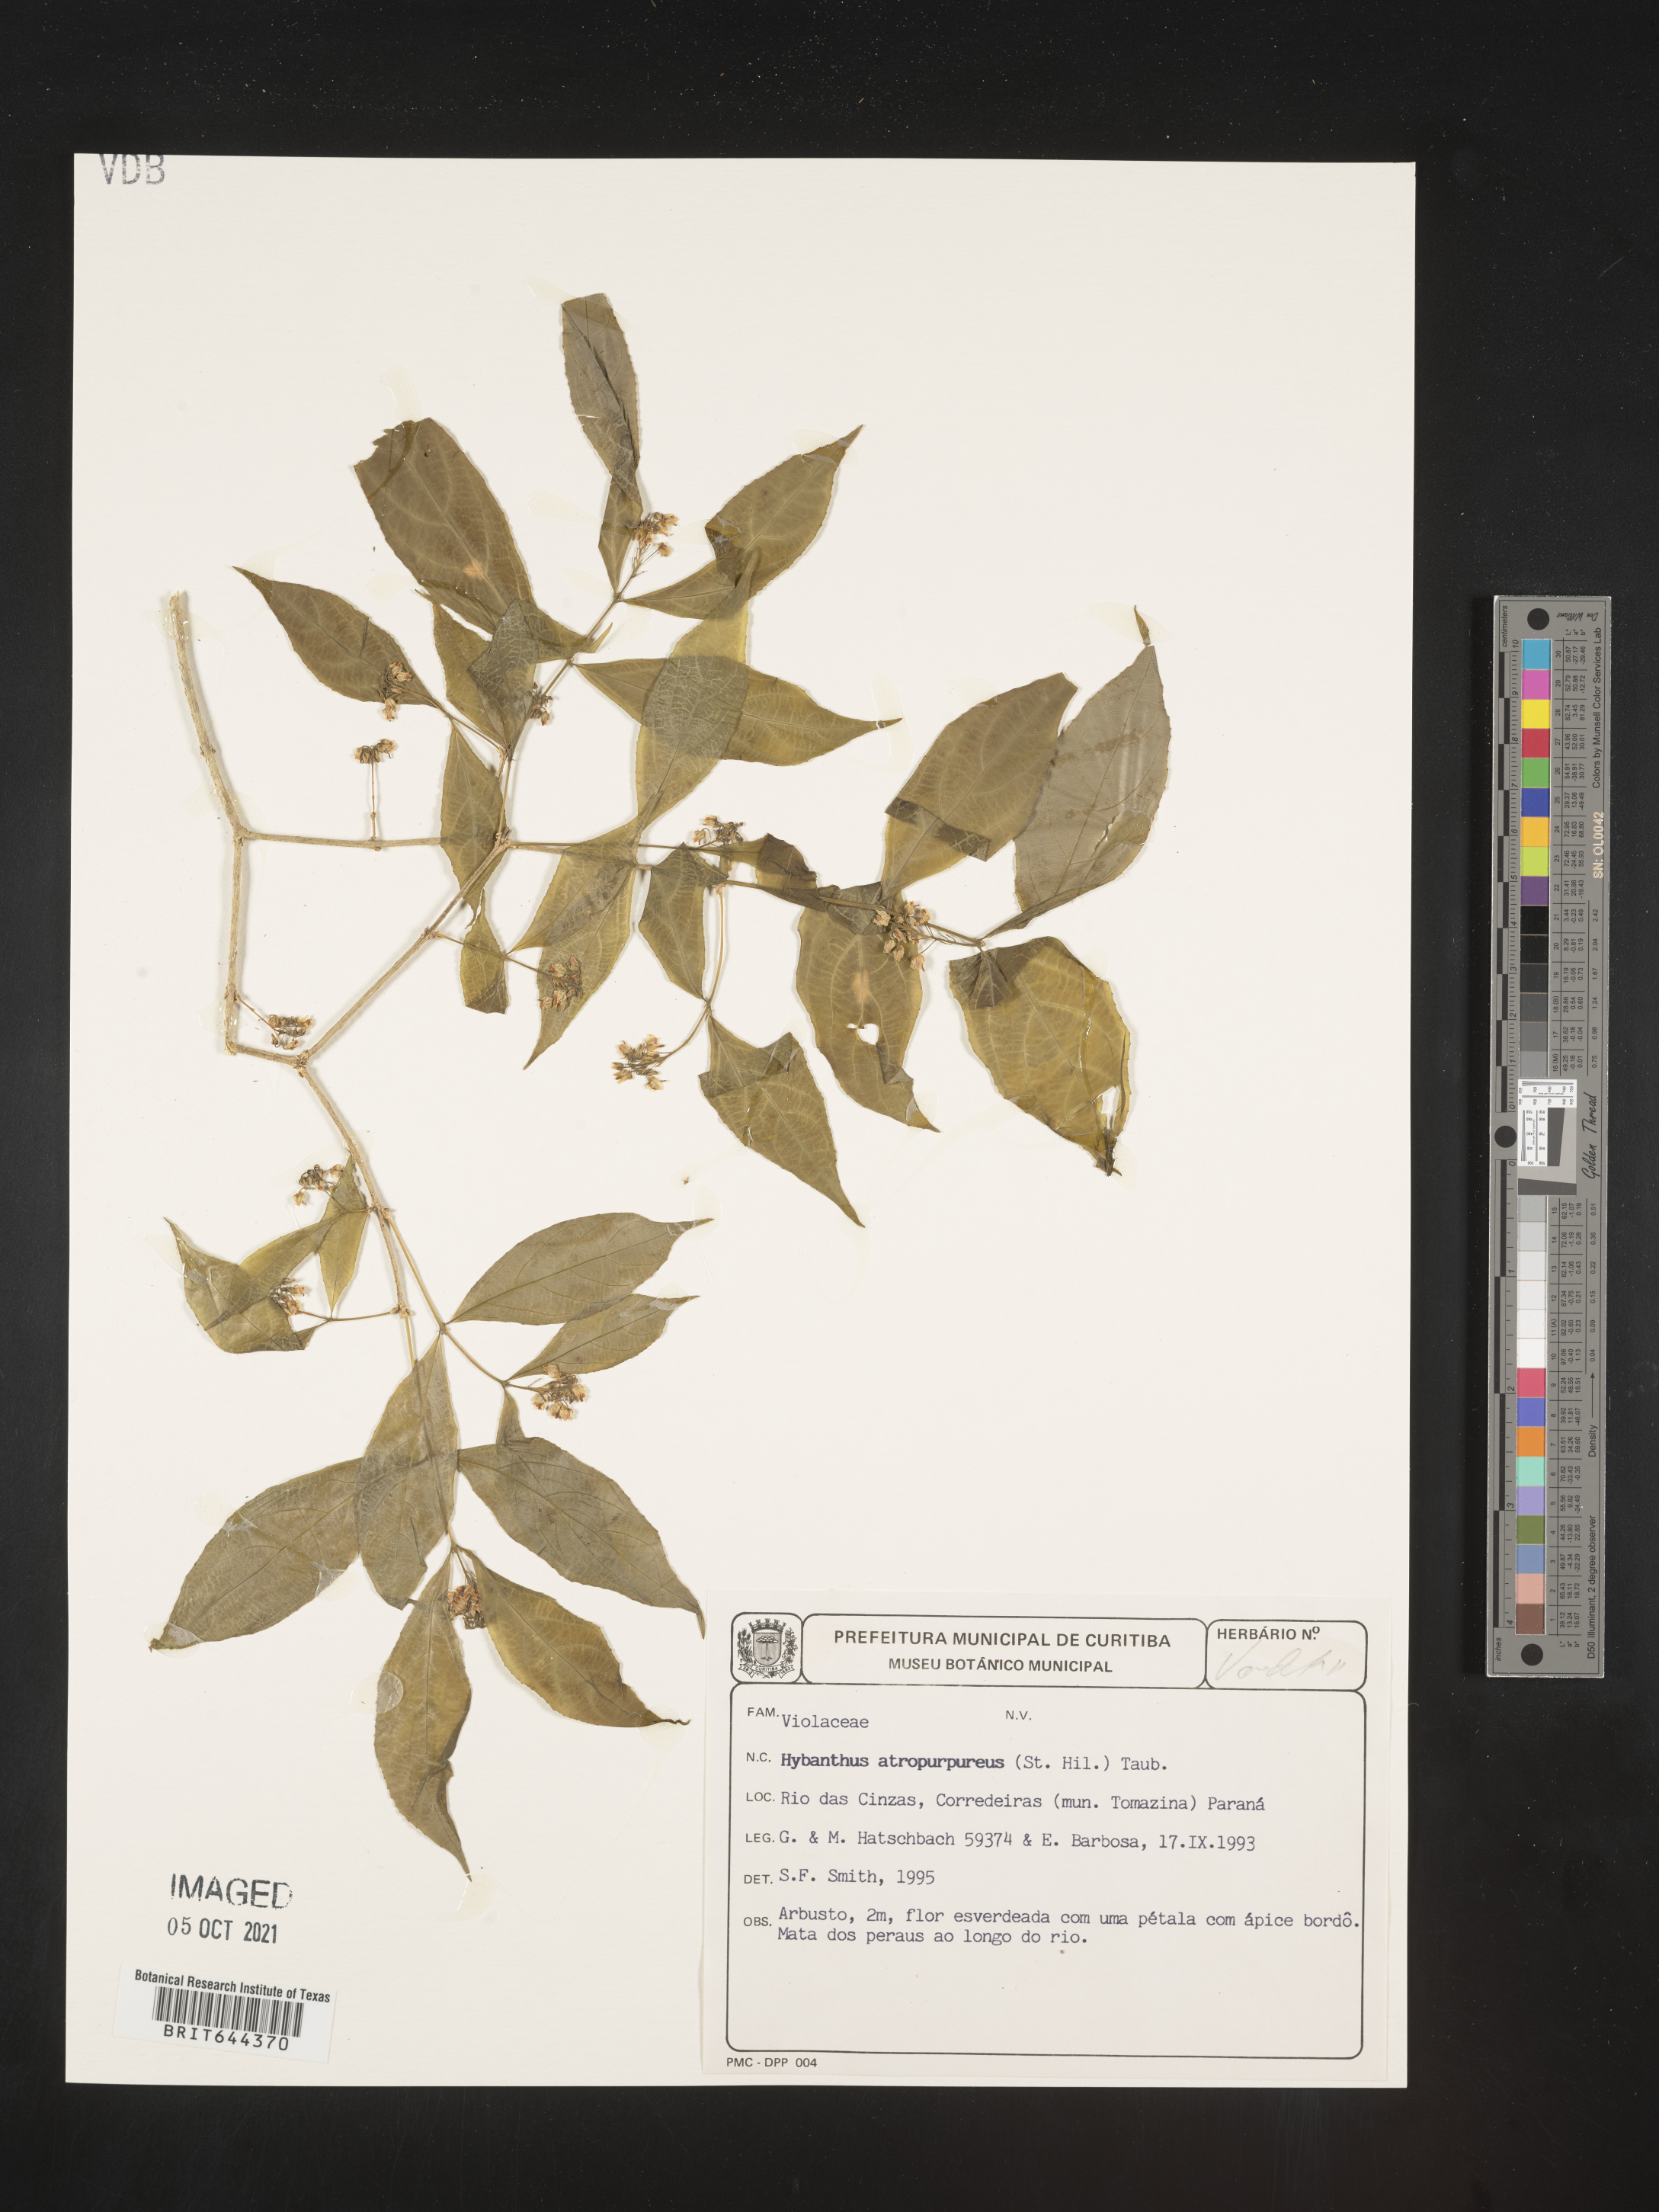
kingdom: Plantae
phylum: Tracheophyta
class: Magnoliopsida
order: Malpighiales
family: Violaceae
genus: Hybanthus
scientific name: Hybanthus
